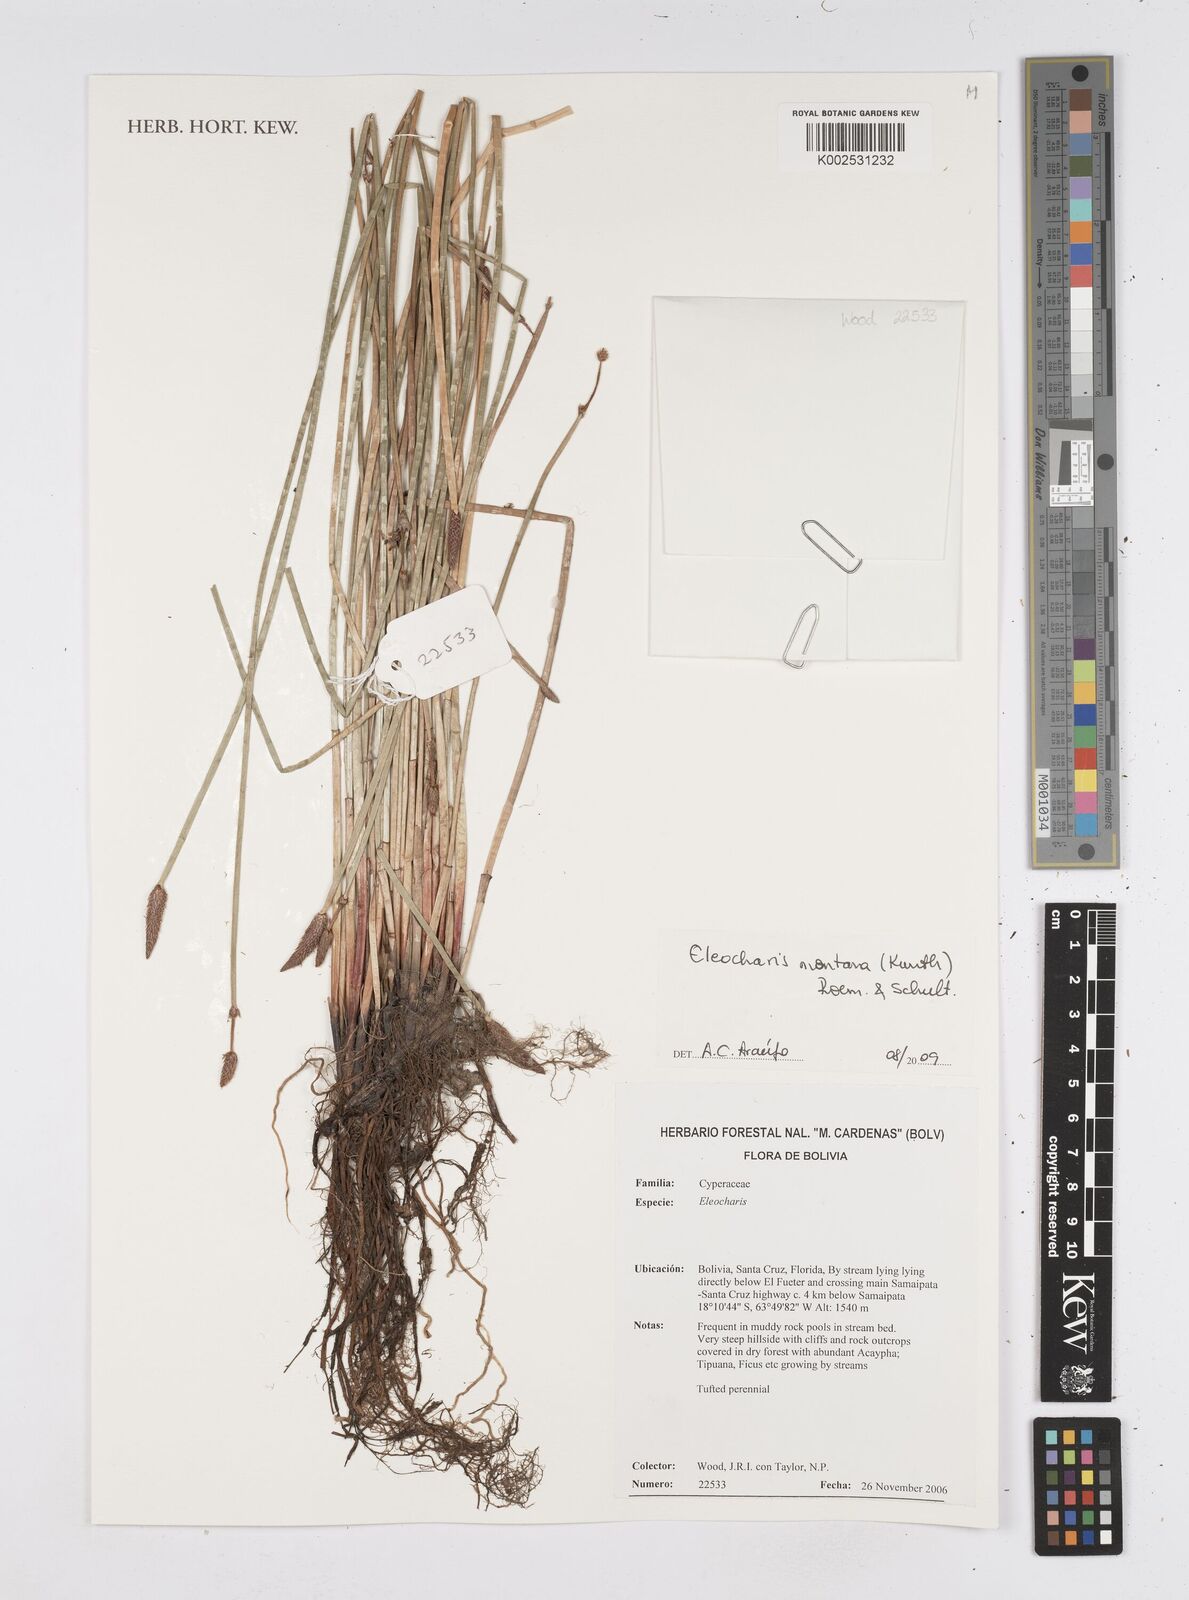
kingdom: Plantae
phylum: Tracheophyta
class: Liliopsida
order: Poales
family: Cyperaceae
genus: Eleocharis
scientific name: Eleocharis montana
